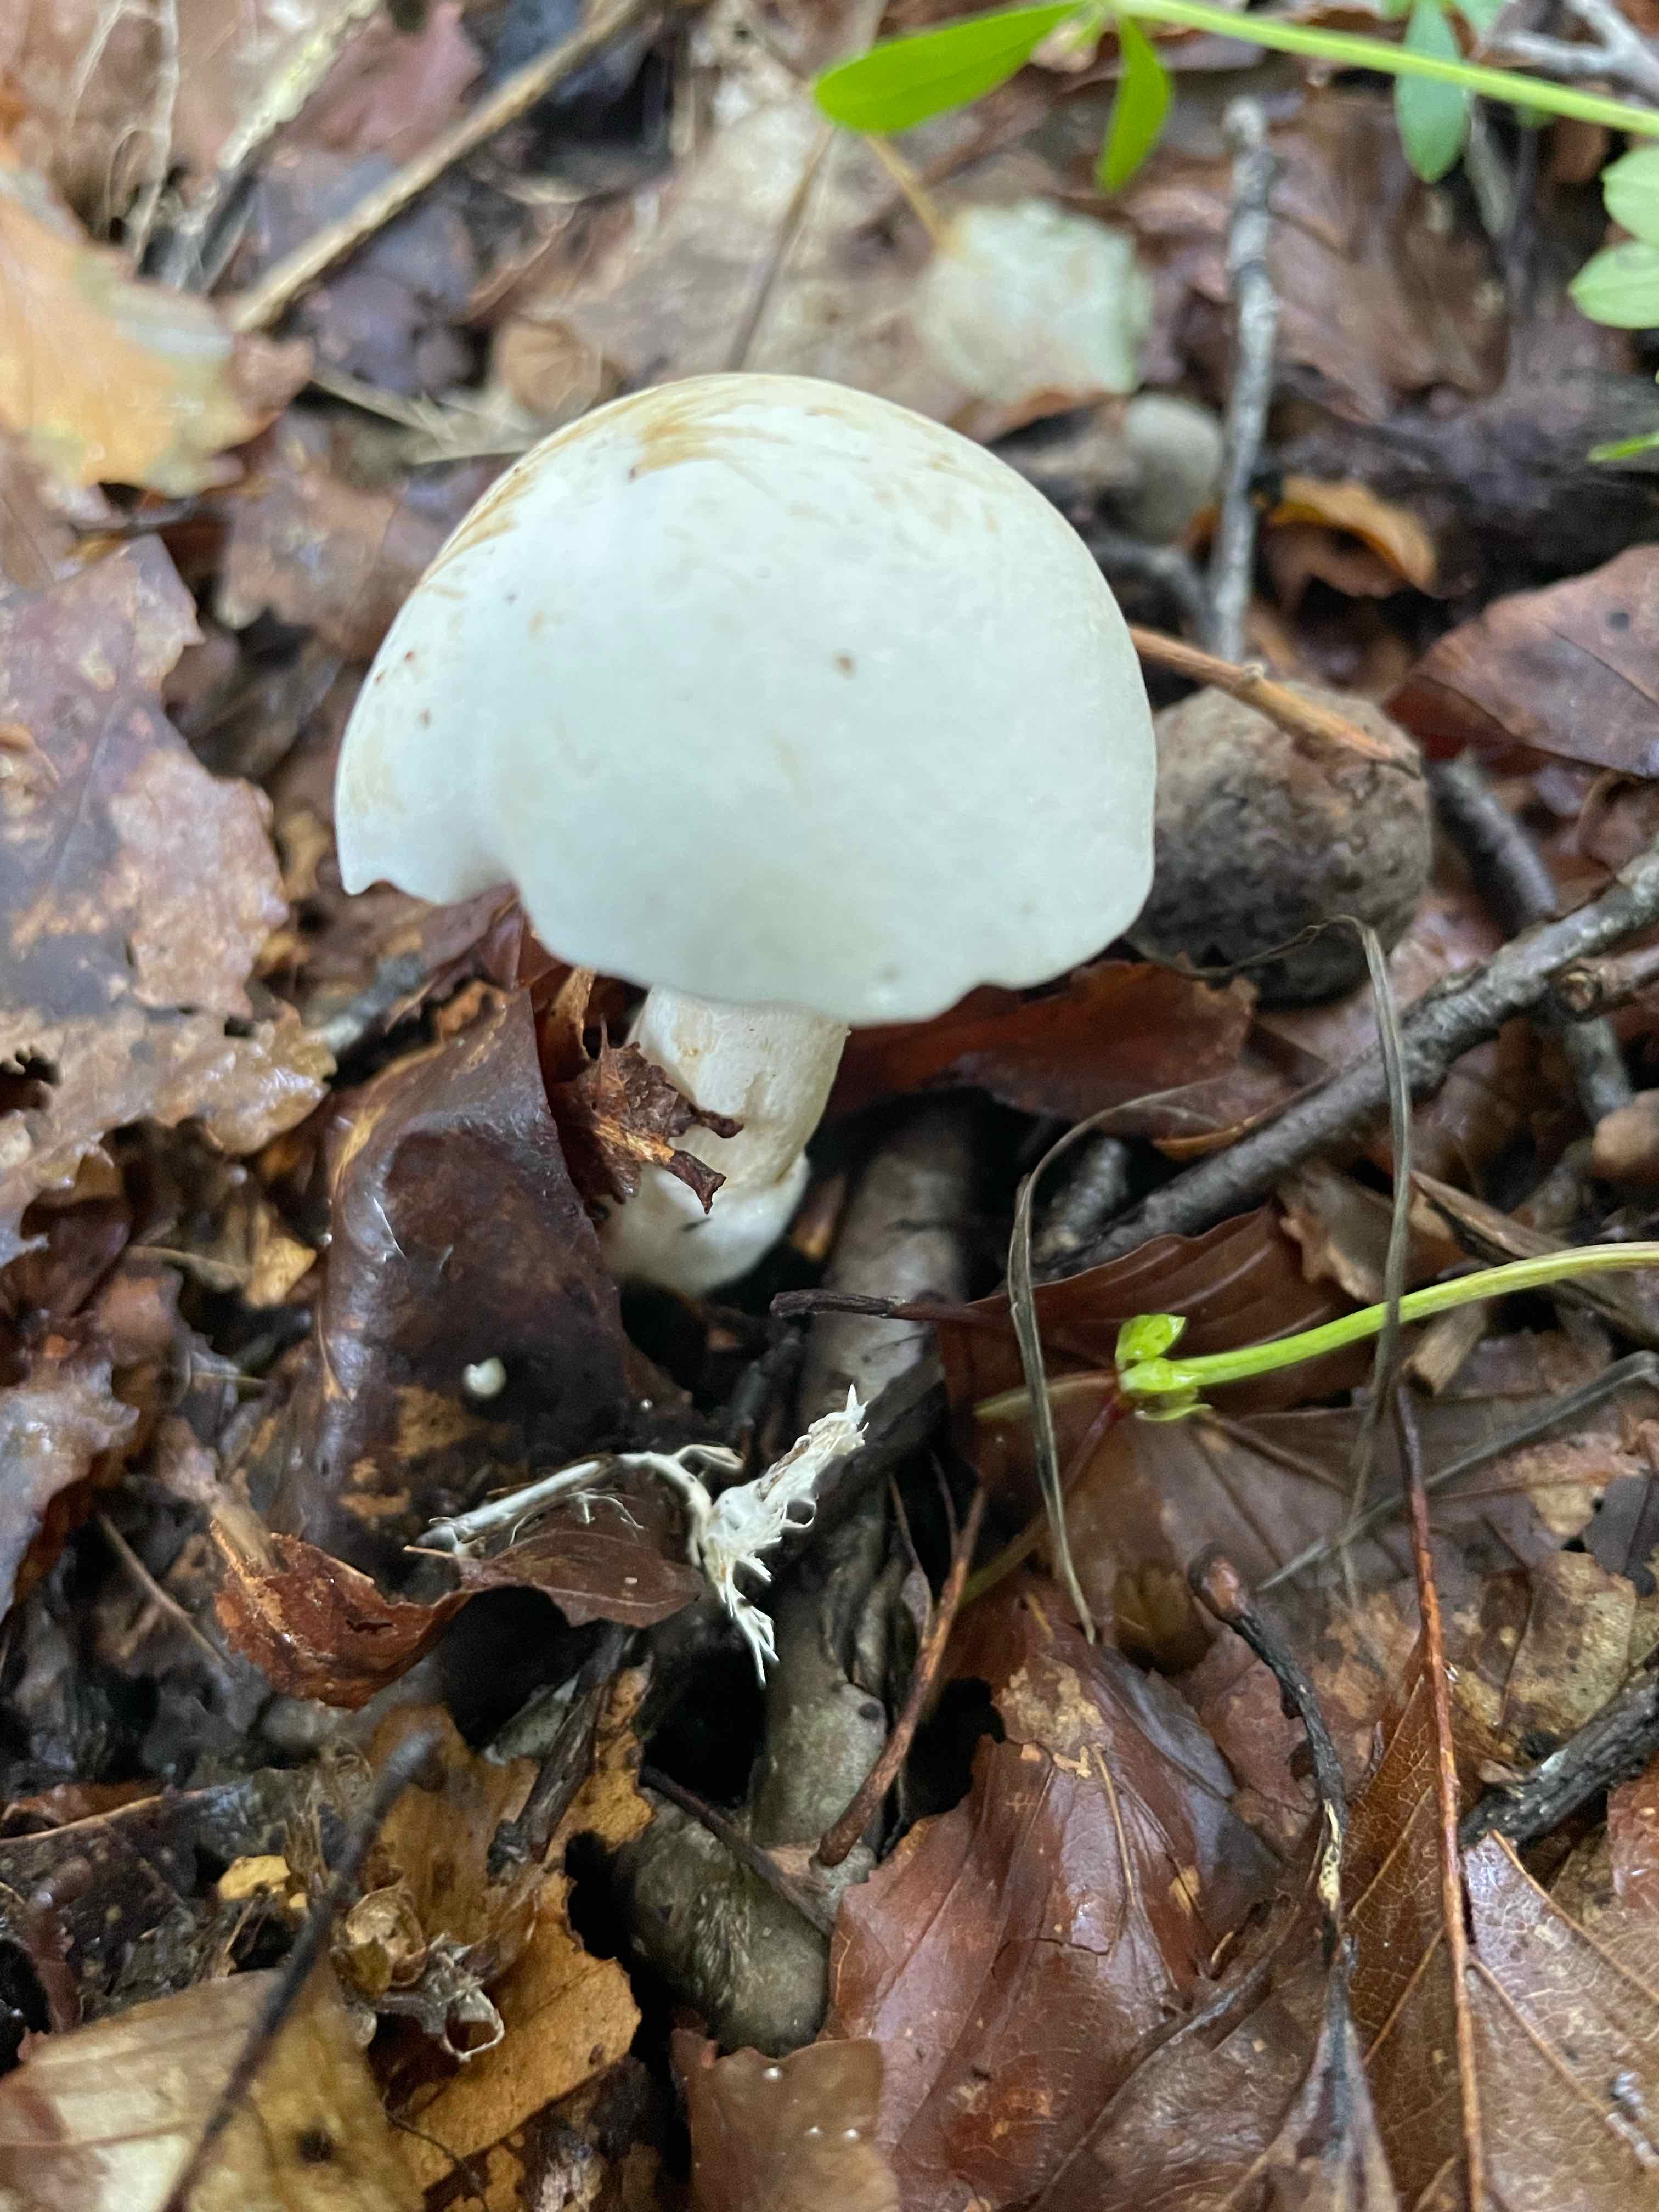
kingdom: Fungi
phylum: Basidiomycota
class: Agaricomycetes
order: Agaricales
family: Tricholomataceae
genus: Tricholoma
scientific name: Tricholoma album
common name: honning-ridderhat
